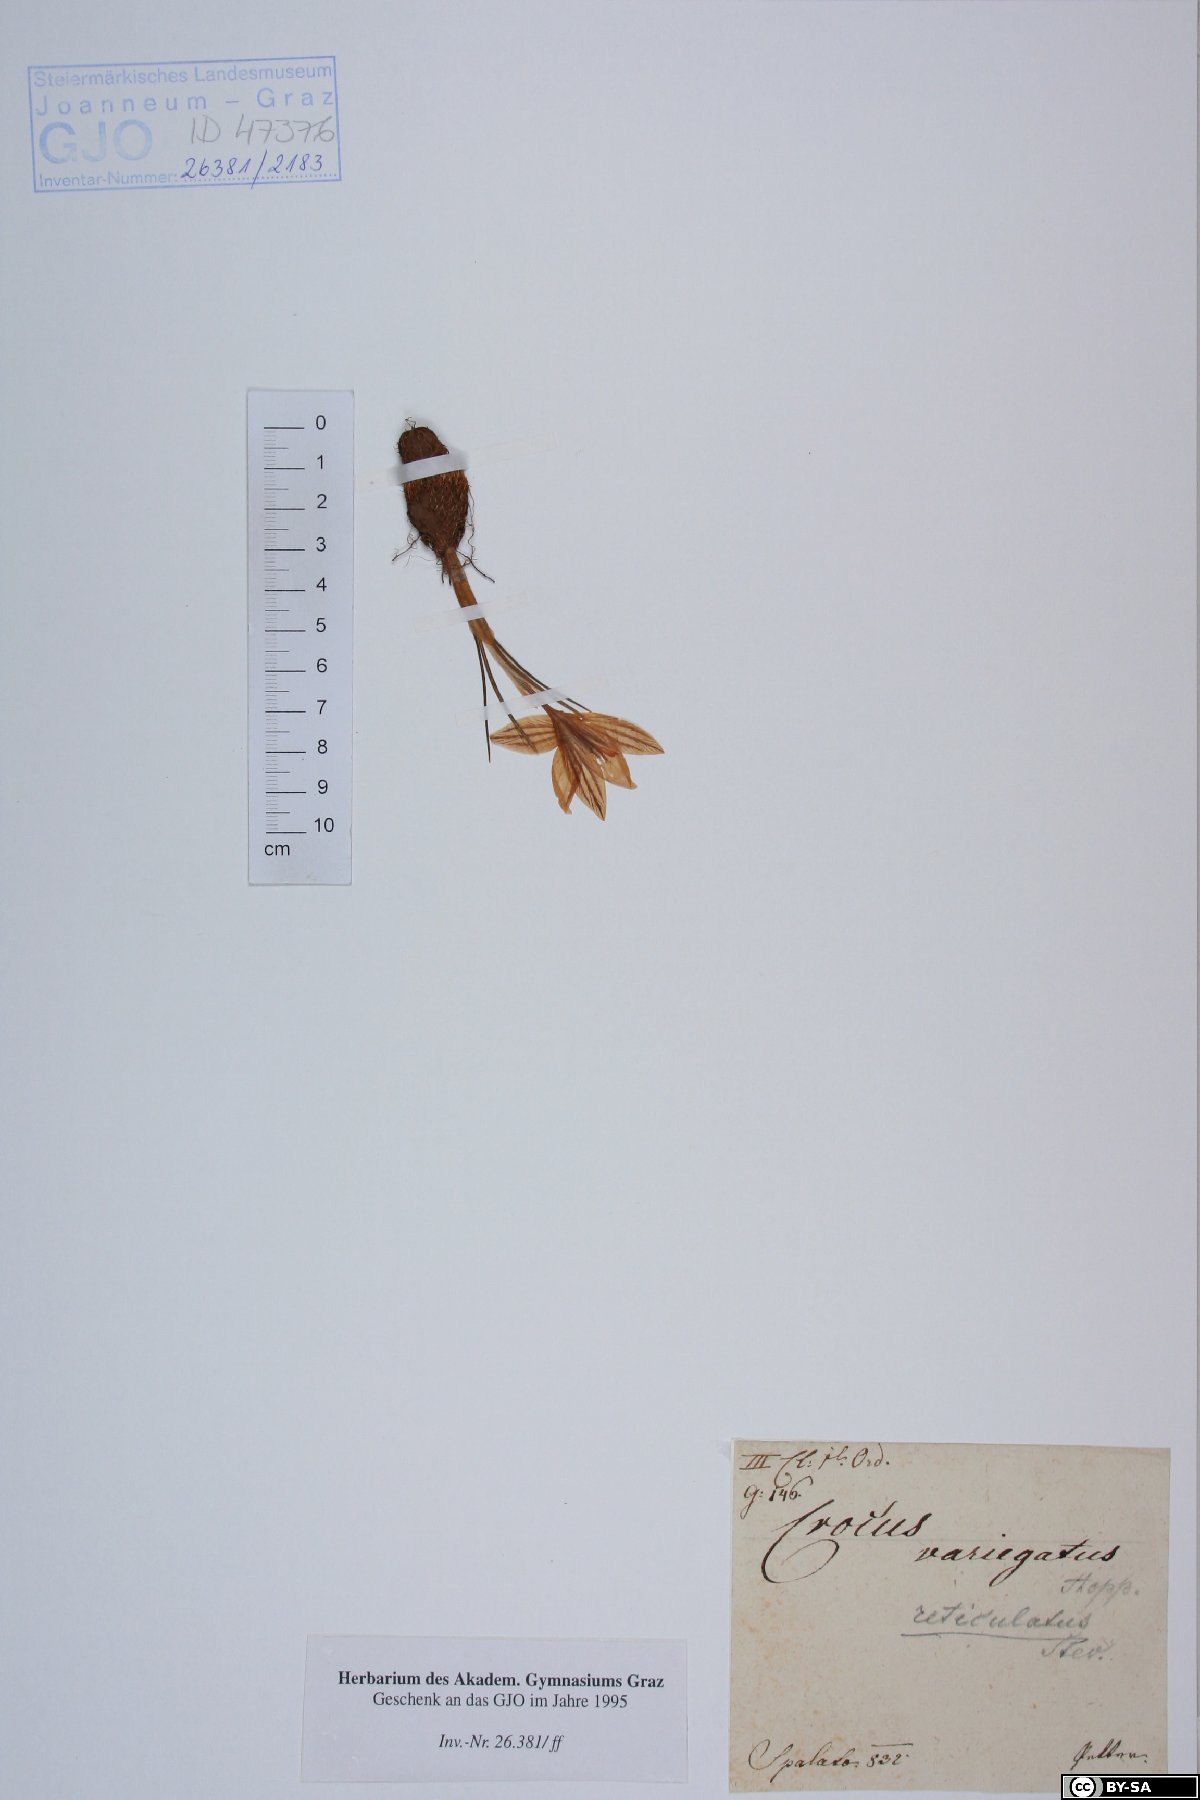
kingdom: Plantae
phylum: Tracheophyta
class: Liliopsida
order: Asparagales
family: Iridaceae
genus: Crocus
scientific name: Crocus variegatus
